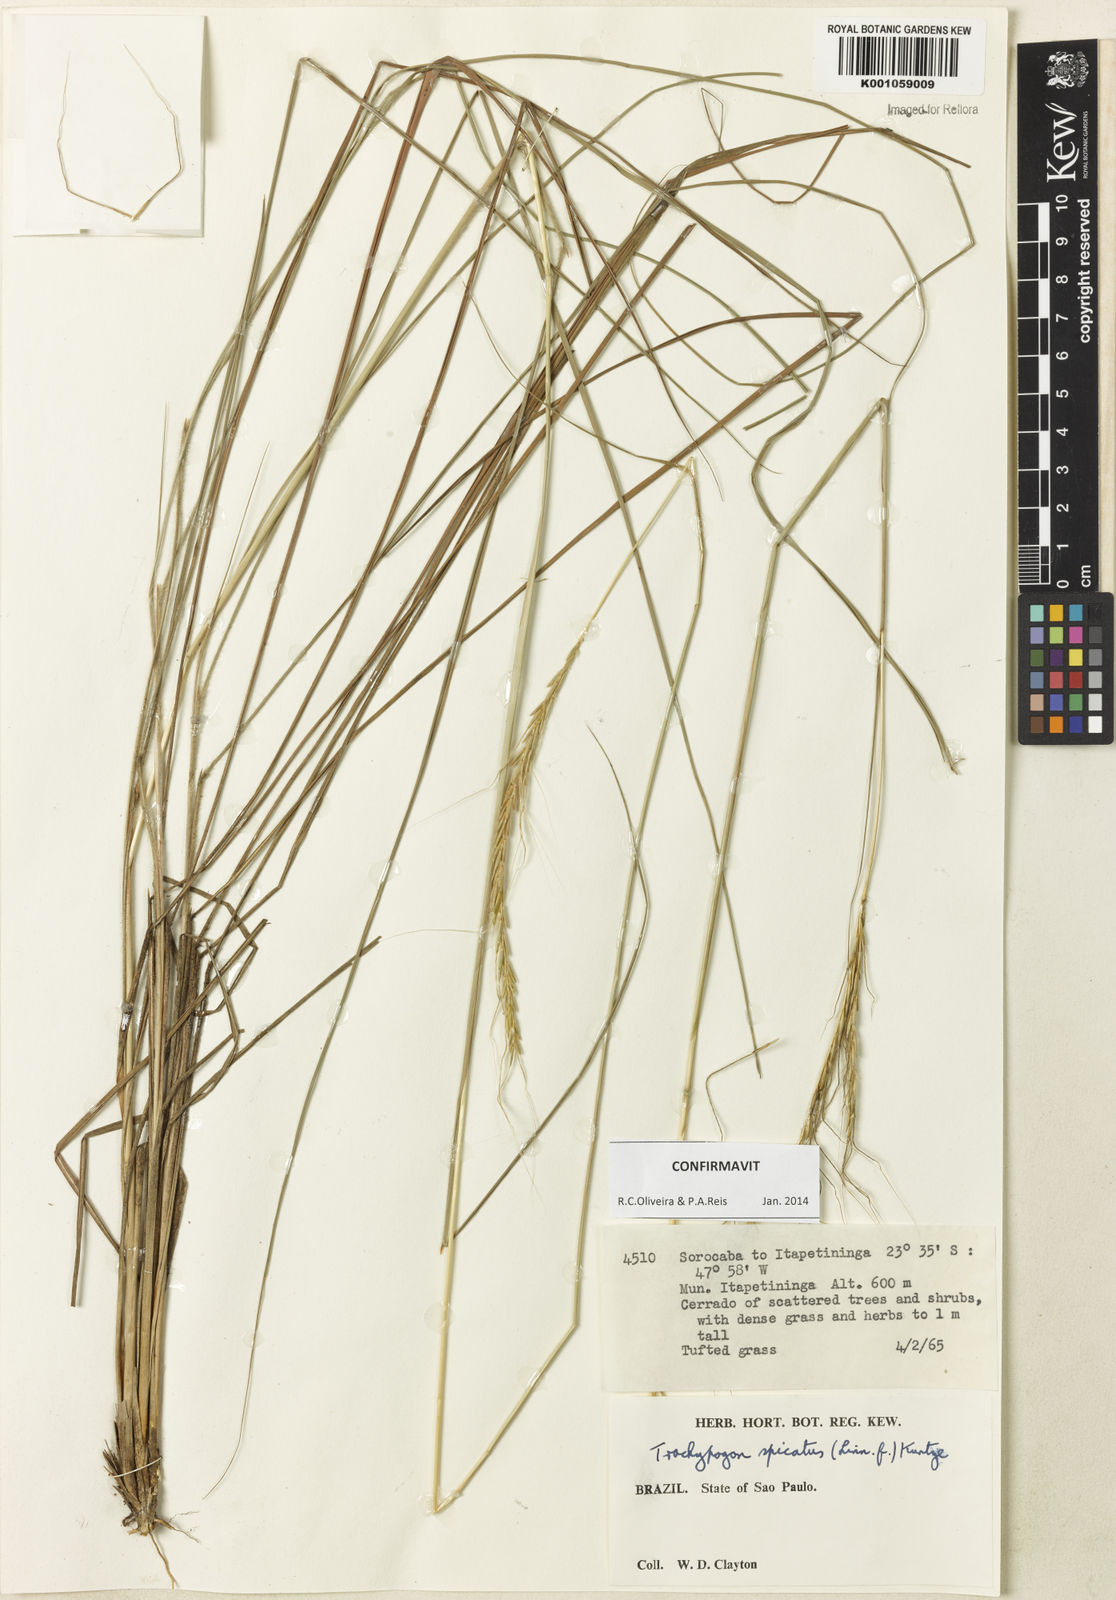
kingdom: Plantae
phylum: Tracheophyta
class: Liliopsida
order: Poales
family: Poaceae
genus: Trachypogon
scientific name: Trachypogon spicatus
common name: Crinkle-awn
